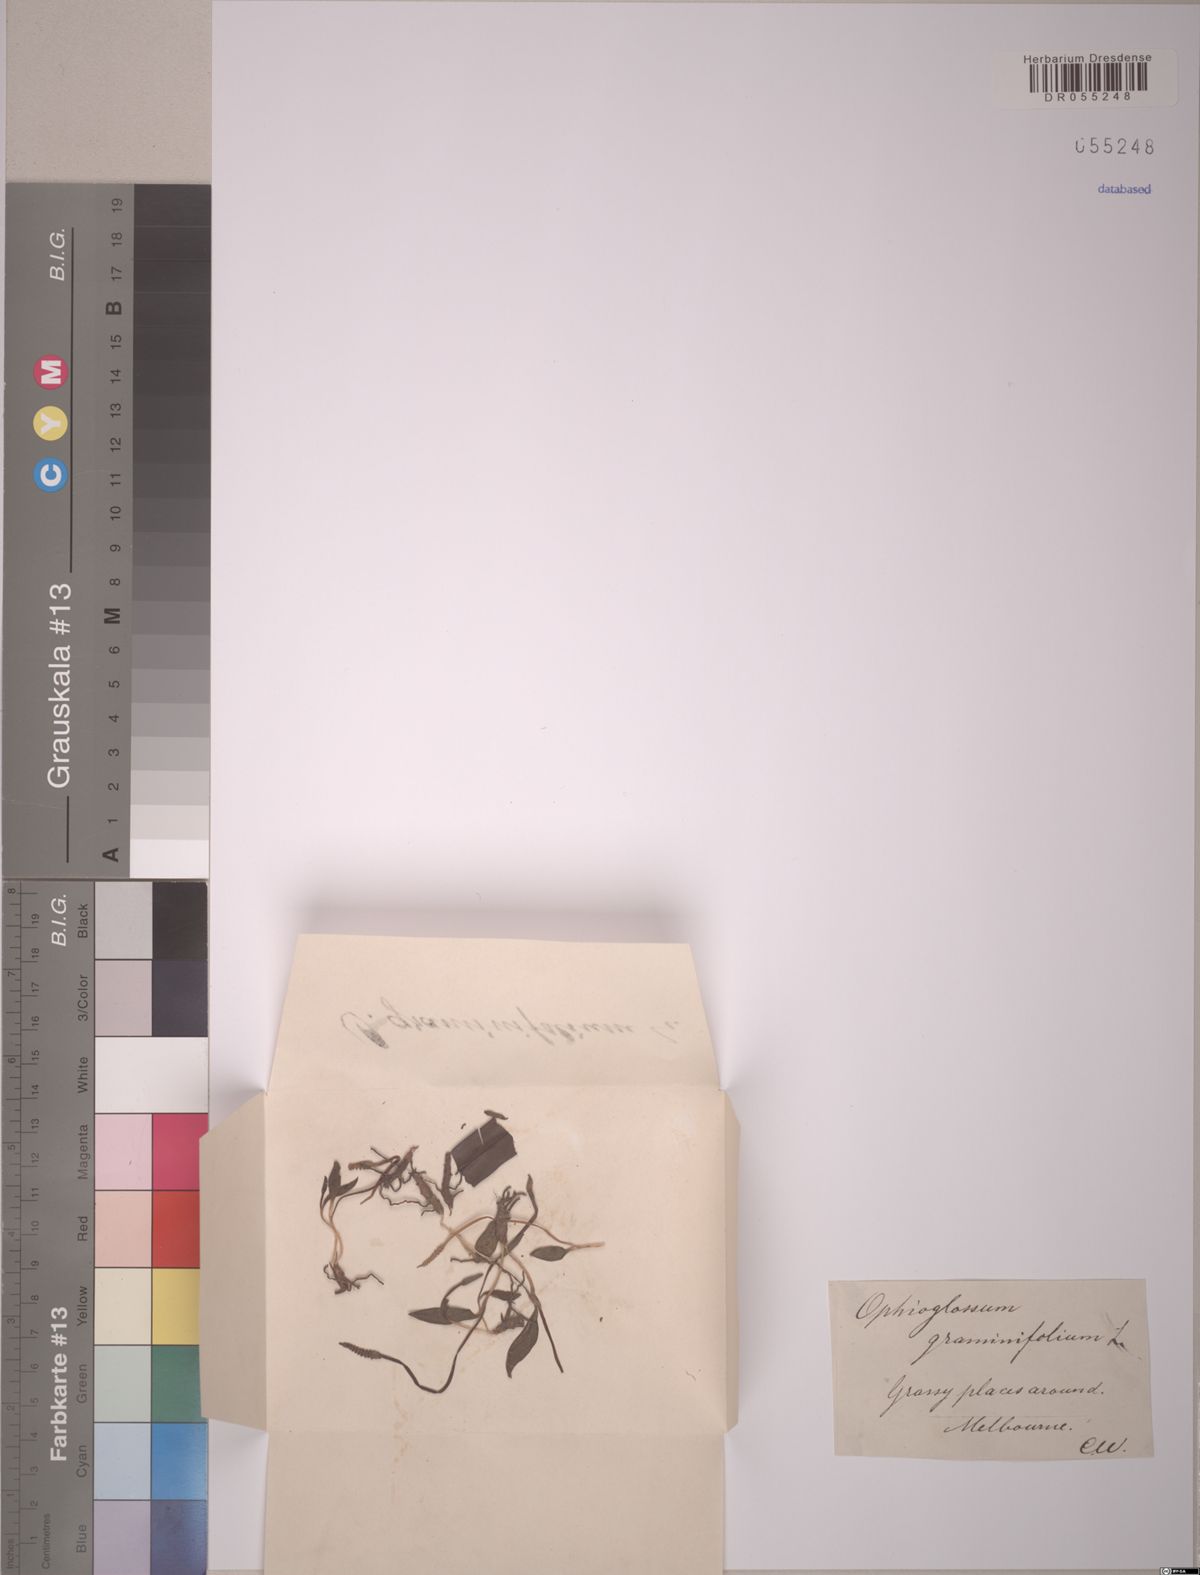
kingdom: Plantae
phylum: Tracheophyta
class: Polypodiopsida
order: Ophioglossales
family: Ophioglossaceae
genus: Ophioglossum
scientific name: Ophioglossum
